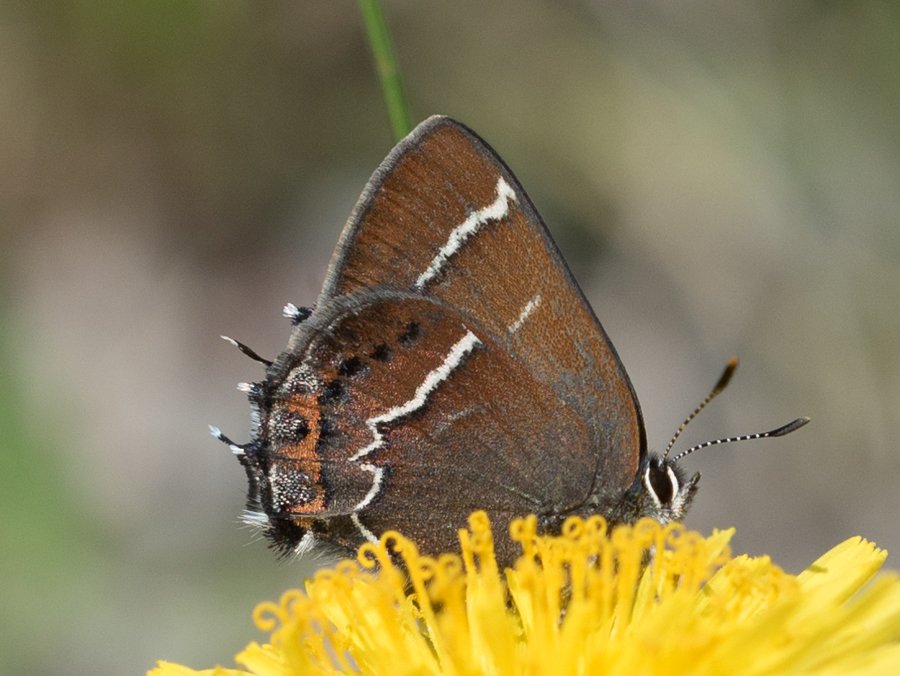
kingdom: Animalia
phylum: Arthropoda
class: Insecta
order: Lepidoptera
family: Lycaenidae
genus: Mitoura
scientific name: Mitoura spinetorum
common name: Thicket Hairstreak
